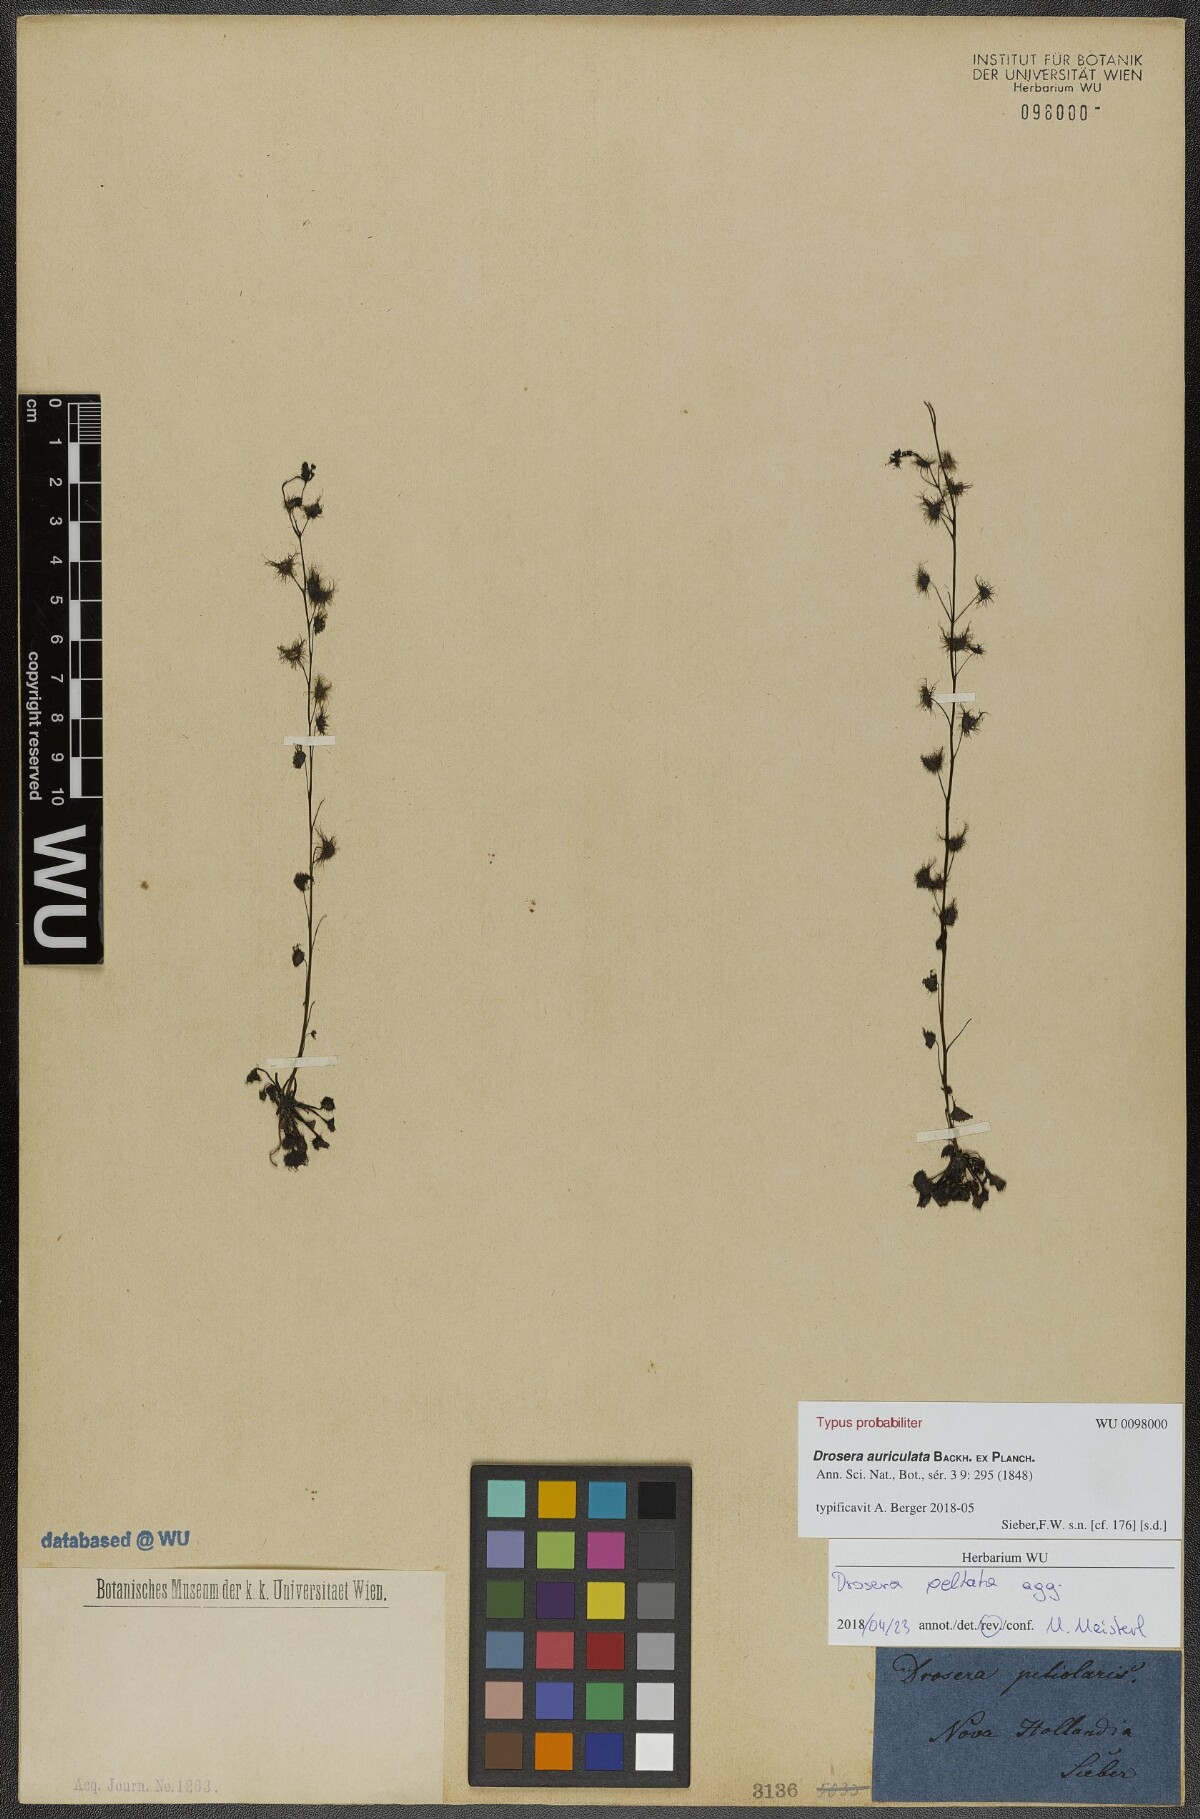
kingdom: Plantae
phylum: Tracheophyta
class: Magnoliopsida
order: Caryophyllales
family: Droseraceae
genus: Drosera
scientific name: Drosera peltata
